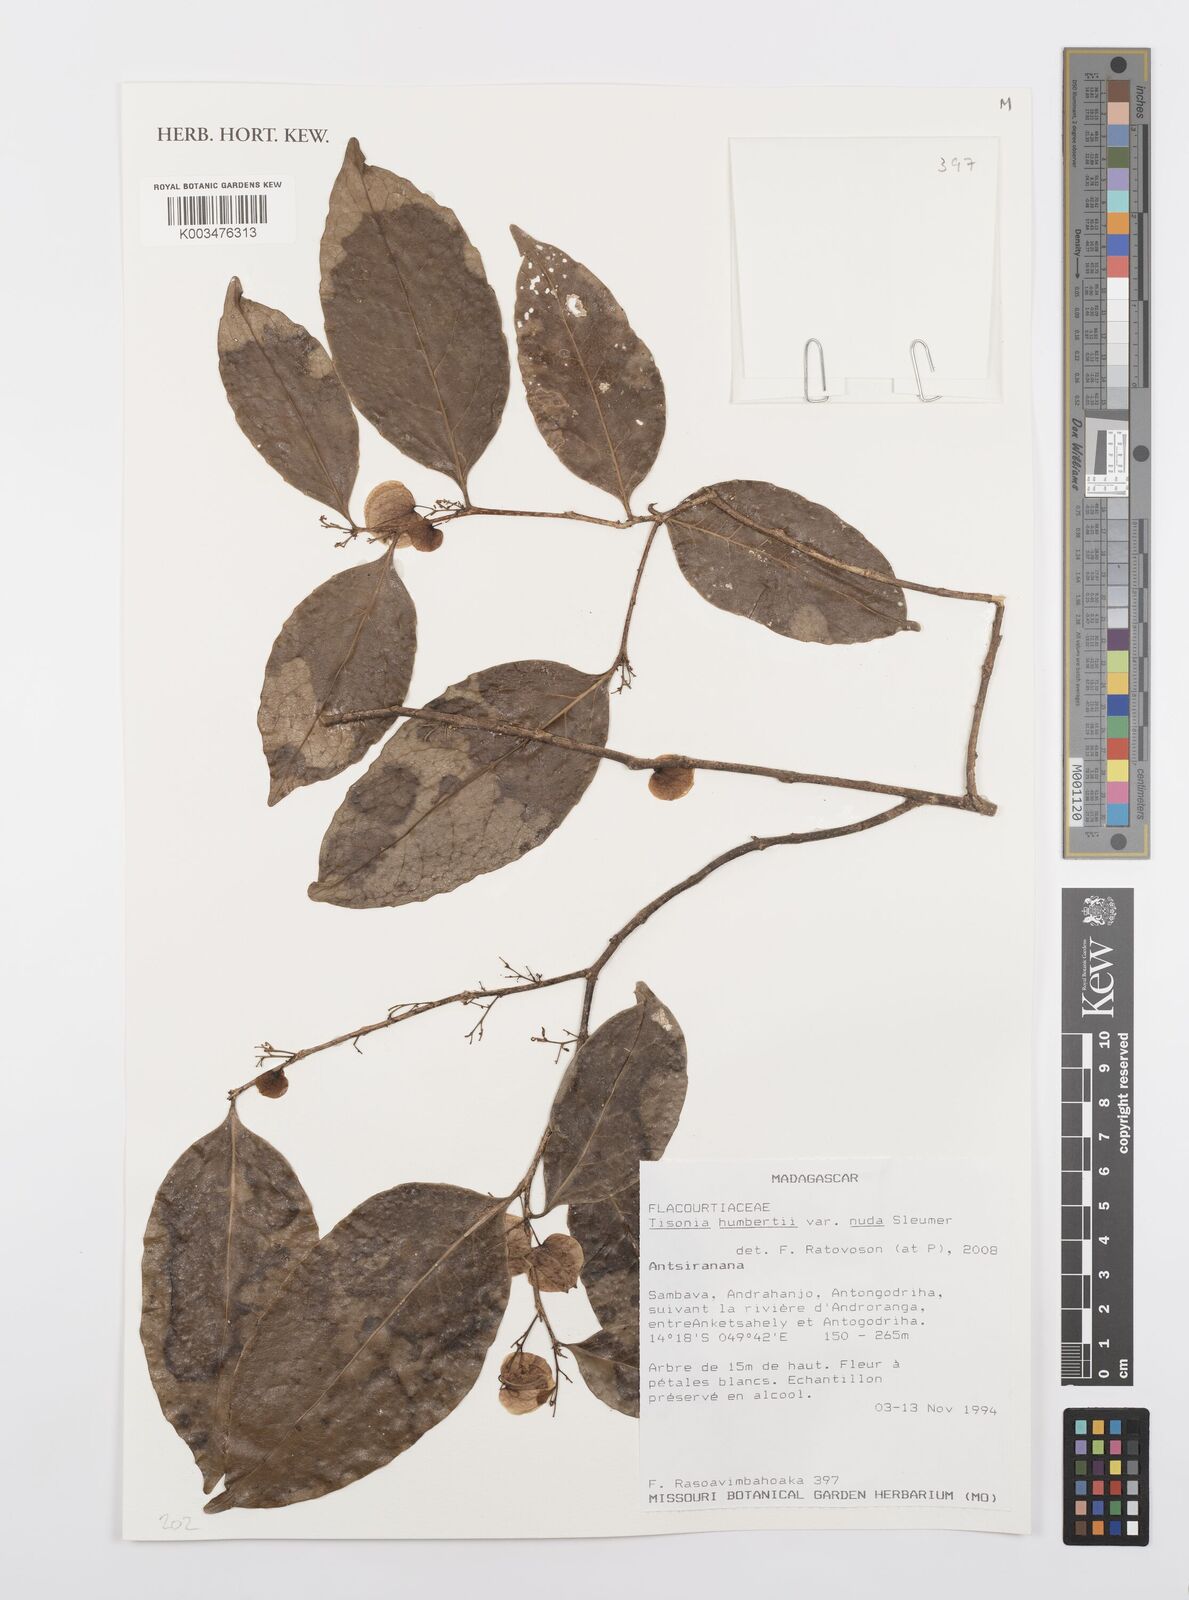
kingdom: Plantae
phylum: Tracheophyta
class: Magnoliopsida
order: Malpighiales
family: Salicaceae
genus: Tisonia
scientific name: Tisonia humbertii
